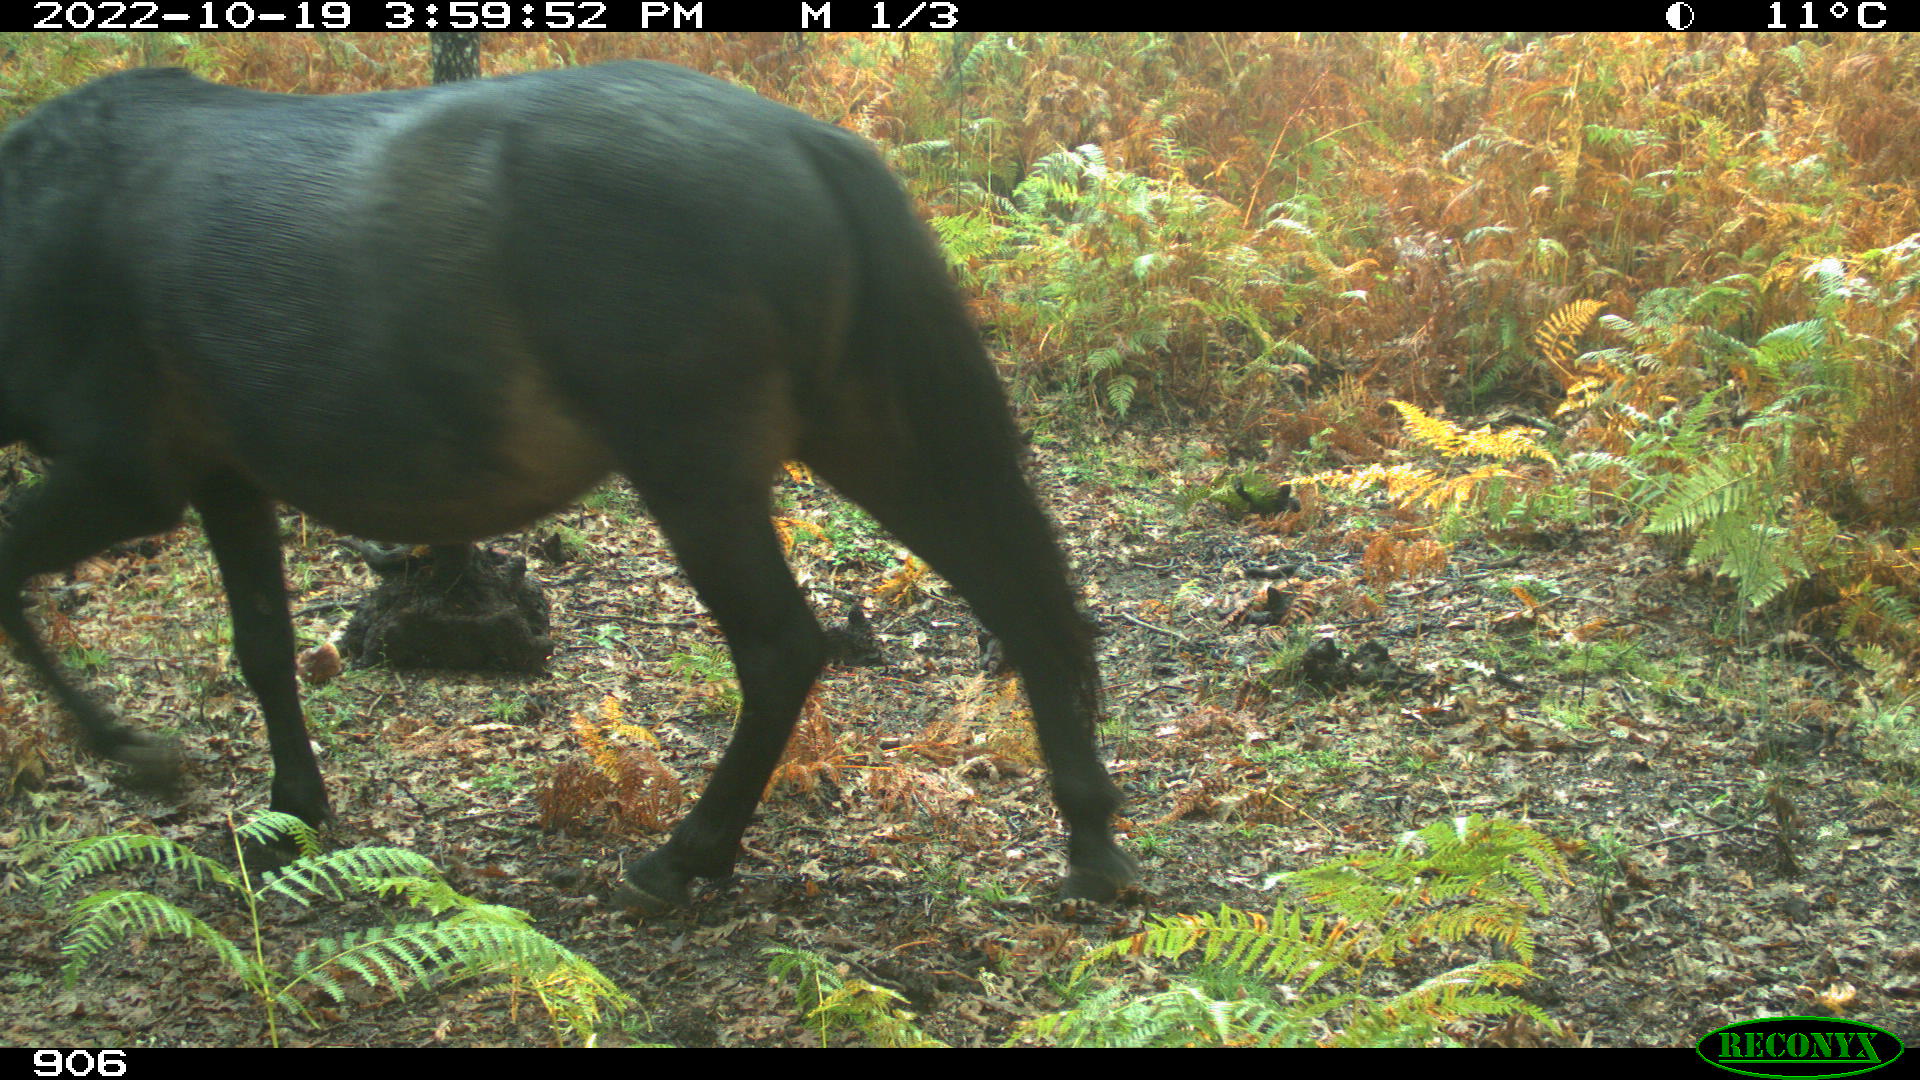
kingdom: Animalia
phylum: Chordata
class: Mammalia
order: Perissodactyla
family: Equidae
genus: Equus
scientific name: Equus caballus
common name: Horse
